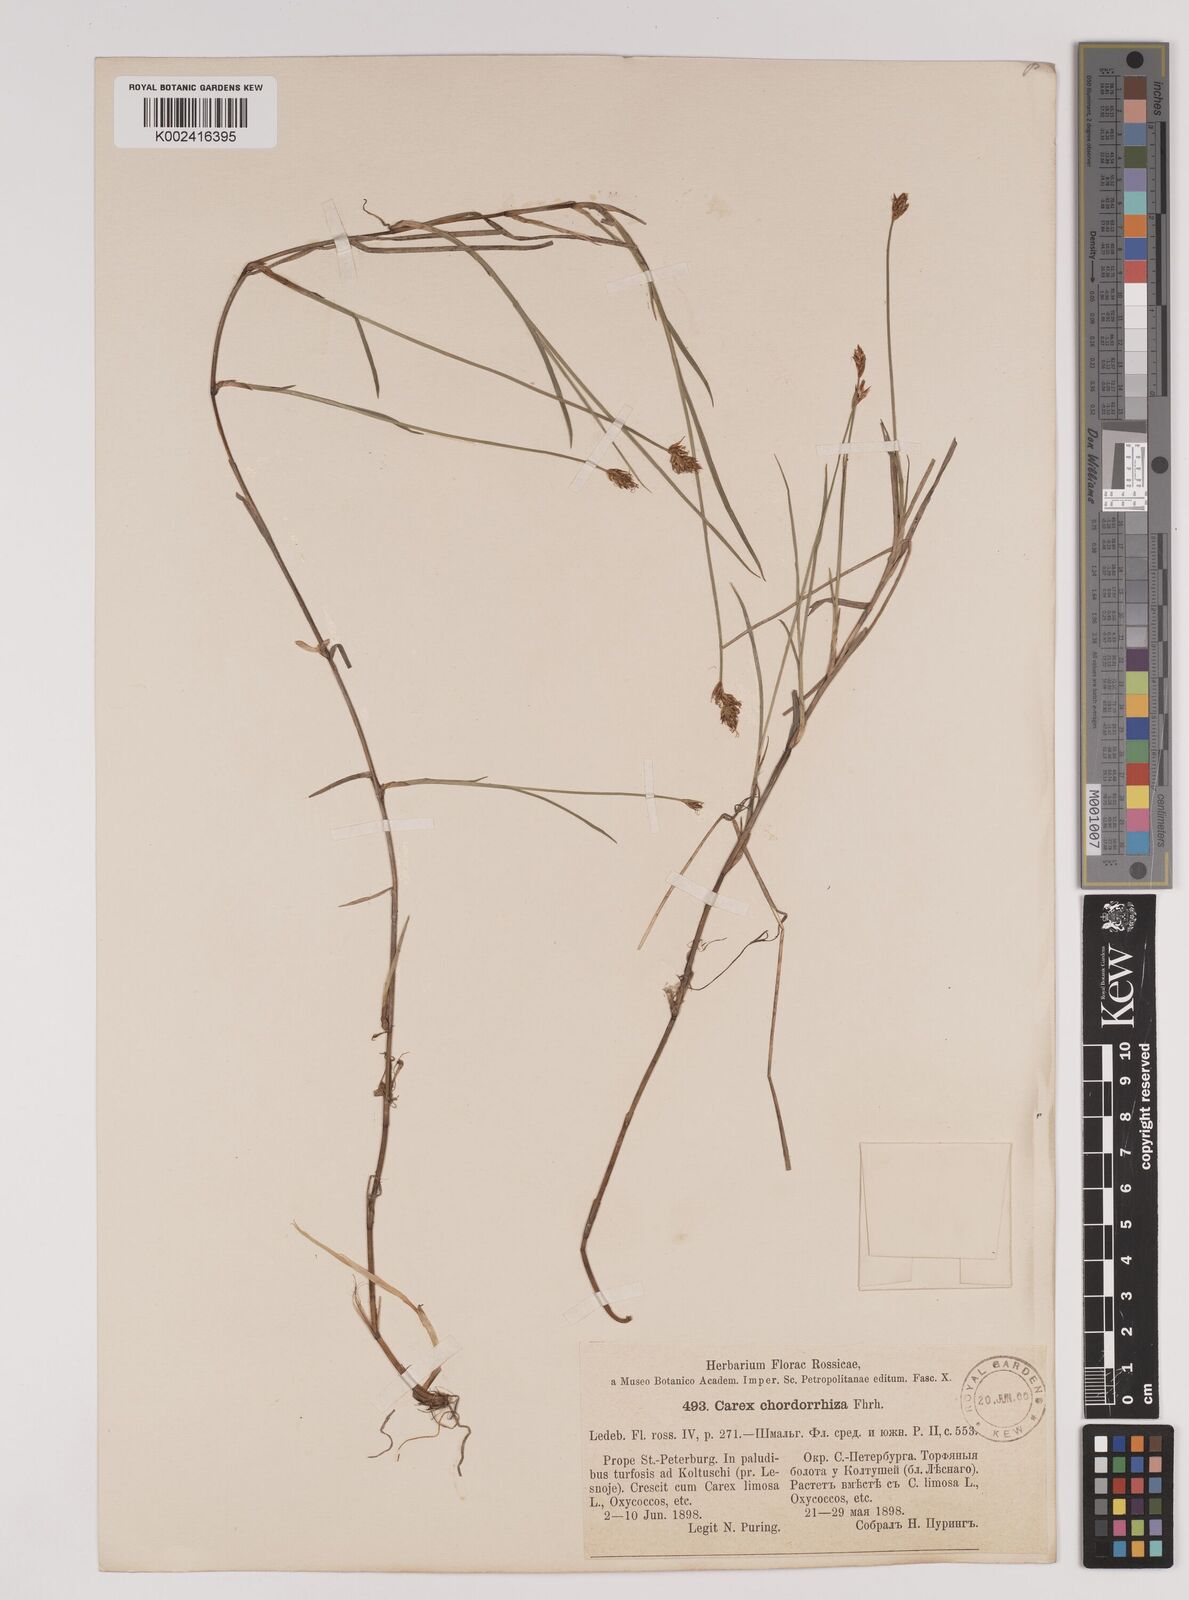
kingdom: Plantae
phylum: Tracheophyta
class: Liliopsida
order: Poales
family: Cyperaceae
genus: Carex
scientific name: Carex chordorrhiza
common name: String sedge
